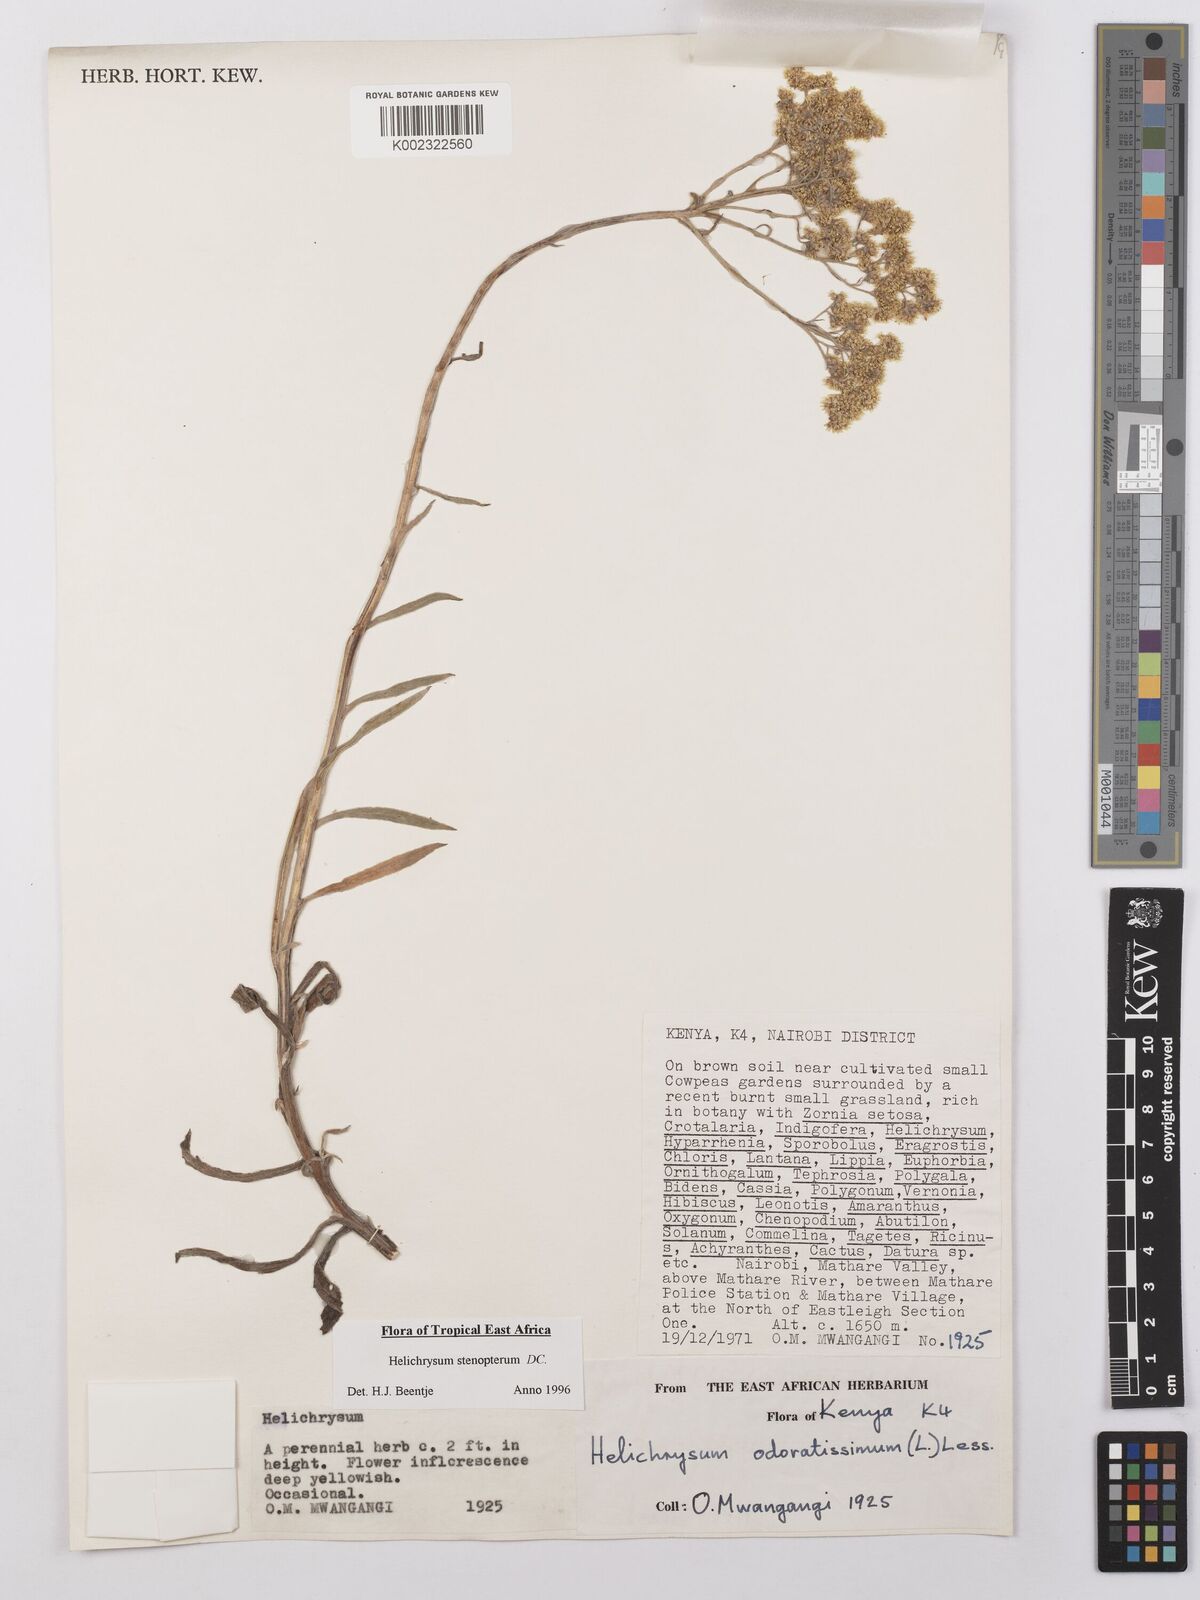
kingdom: Plantae
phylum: Tracheophyta
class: Magnoliopsida
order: Asterales
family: Asteraceae
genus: Helichrysum
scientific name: Helichrysum stenopterum
